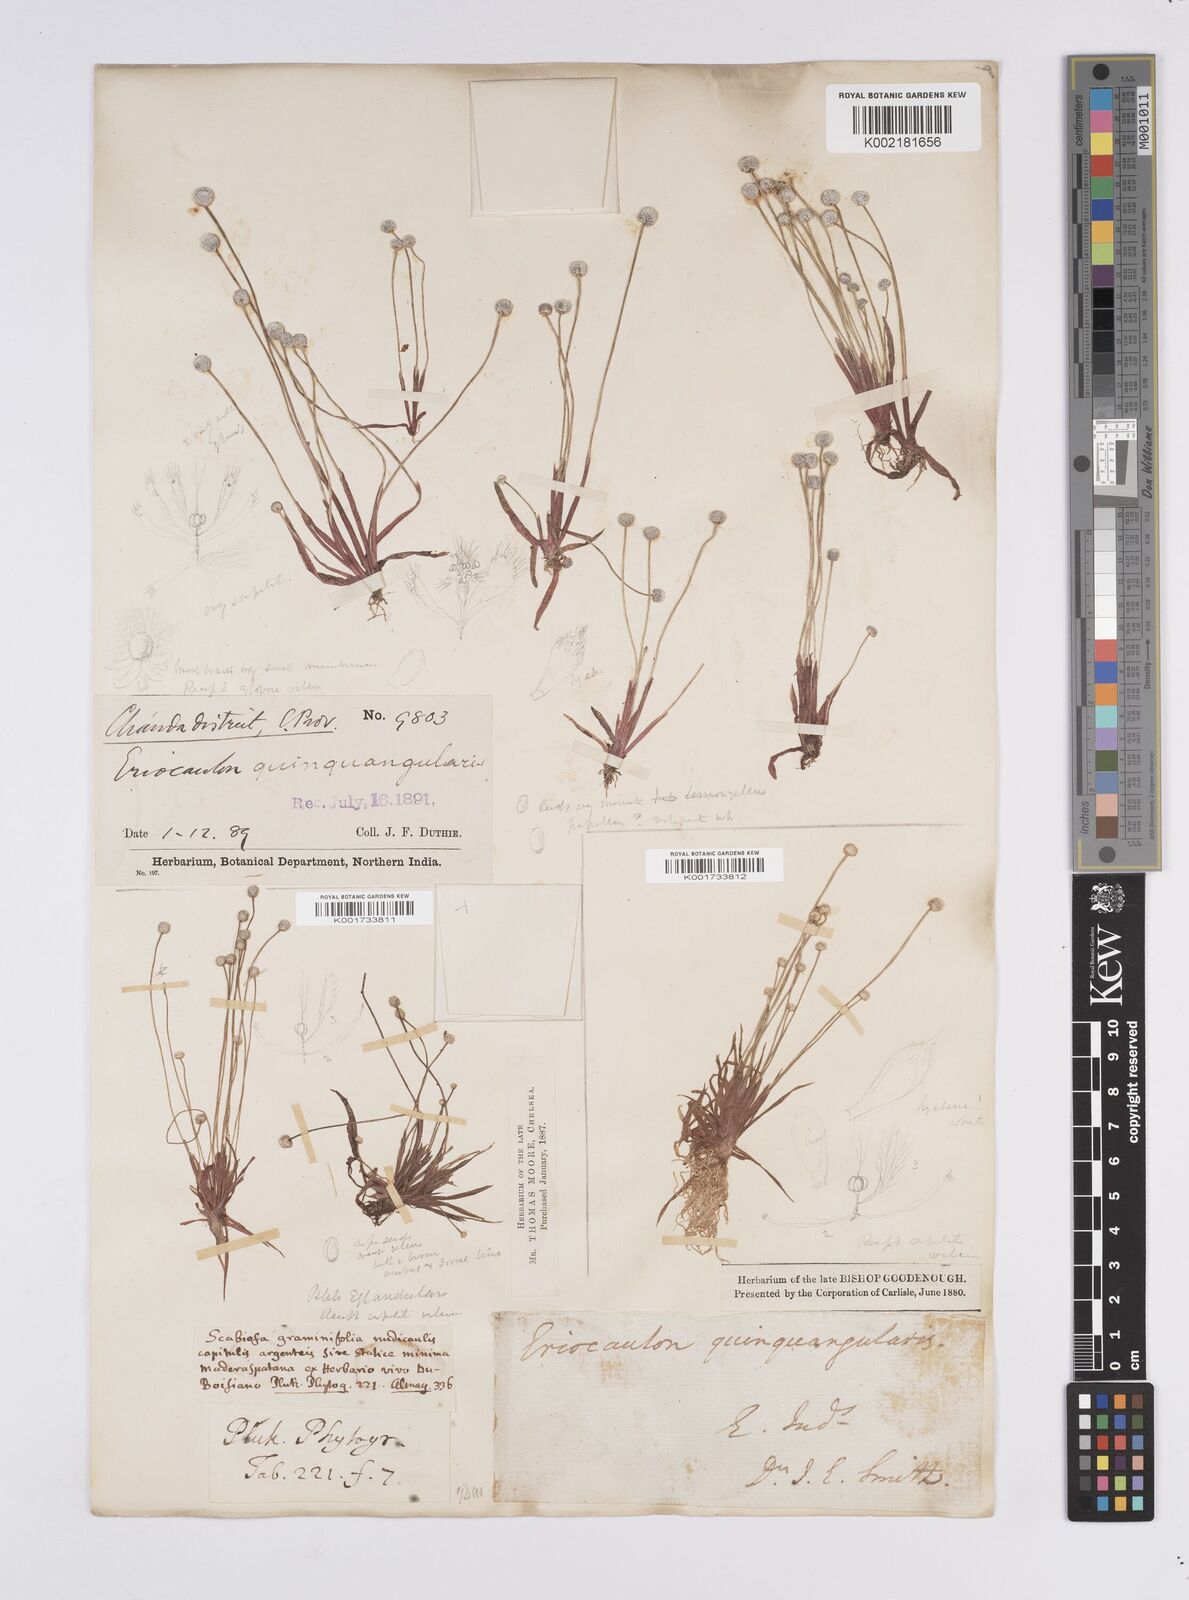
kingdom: Plantae
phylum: Tracheophyta
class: Liliopsida
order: Poales
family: Eriocaulaceae
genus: Eriocaulon
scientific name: Eriocaulon quinquangulare
